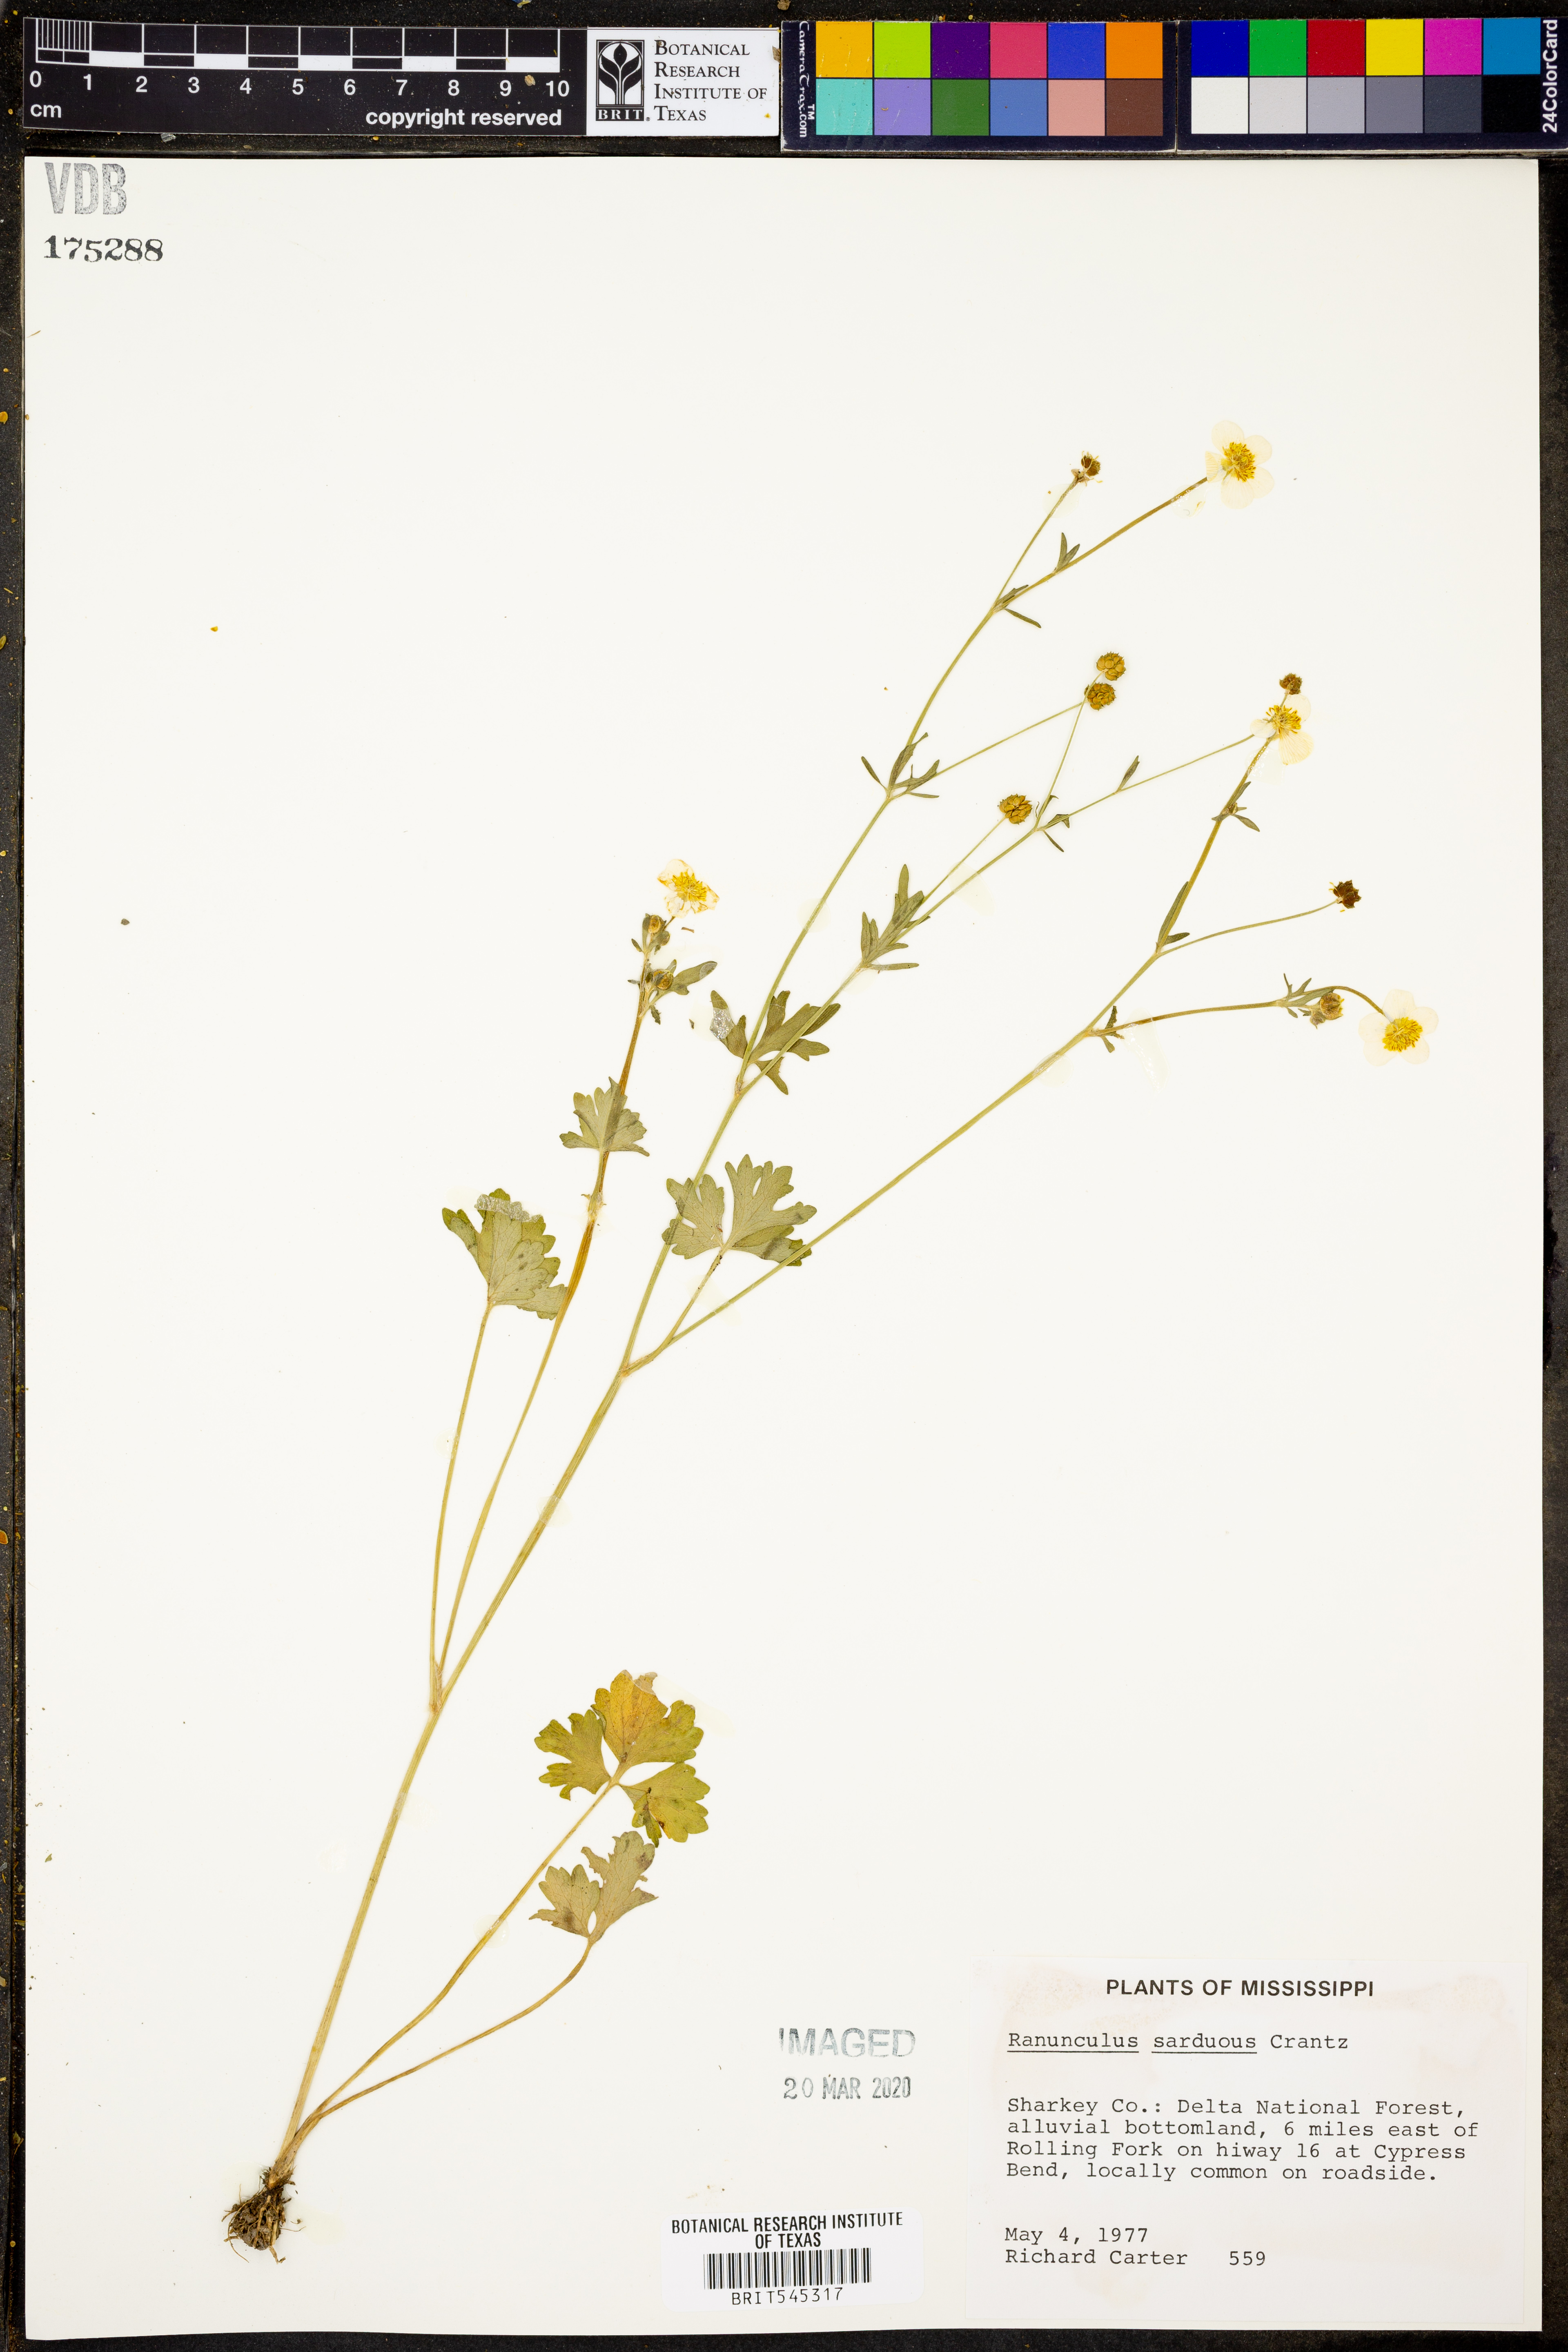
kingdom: Plantae
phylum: Tracheophyta
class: Magnoliopsida
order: Ranunculales
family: Ranunculaceae
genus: Ranunculus
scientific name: Ranunculus sardous
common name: Hairy buttercup
